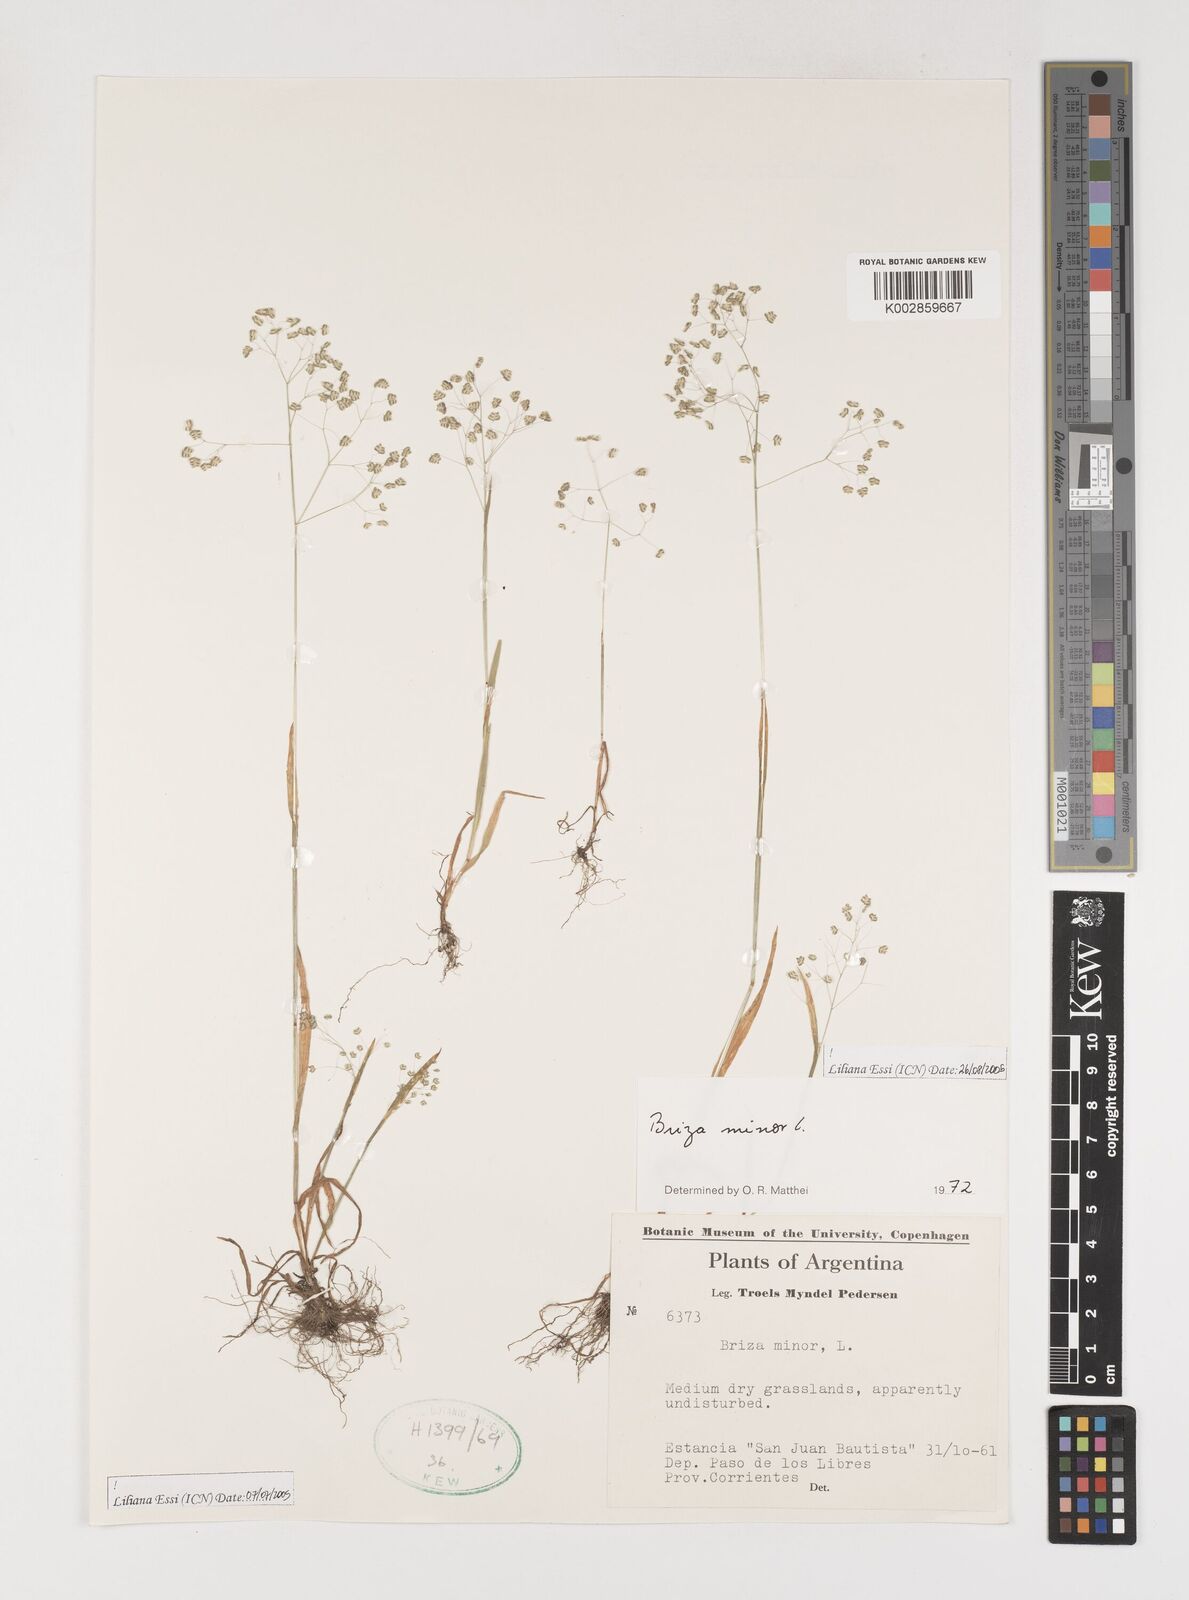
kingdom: Plantae
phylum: Tracheophyta
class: Liliopsida
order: Poales
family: Poaceae
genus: Briza
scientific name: Briza minor
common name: Lesser quaking-grass
